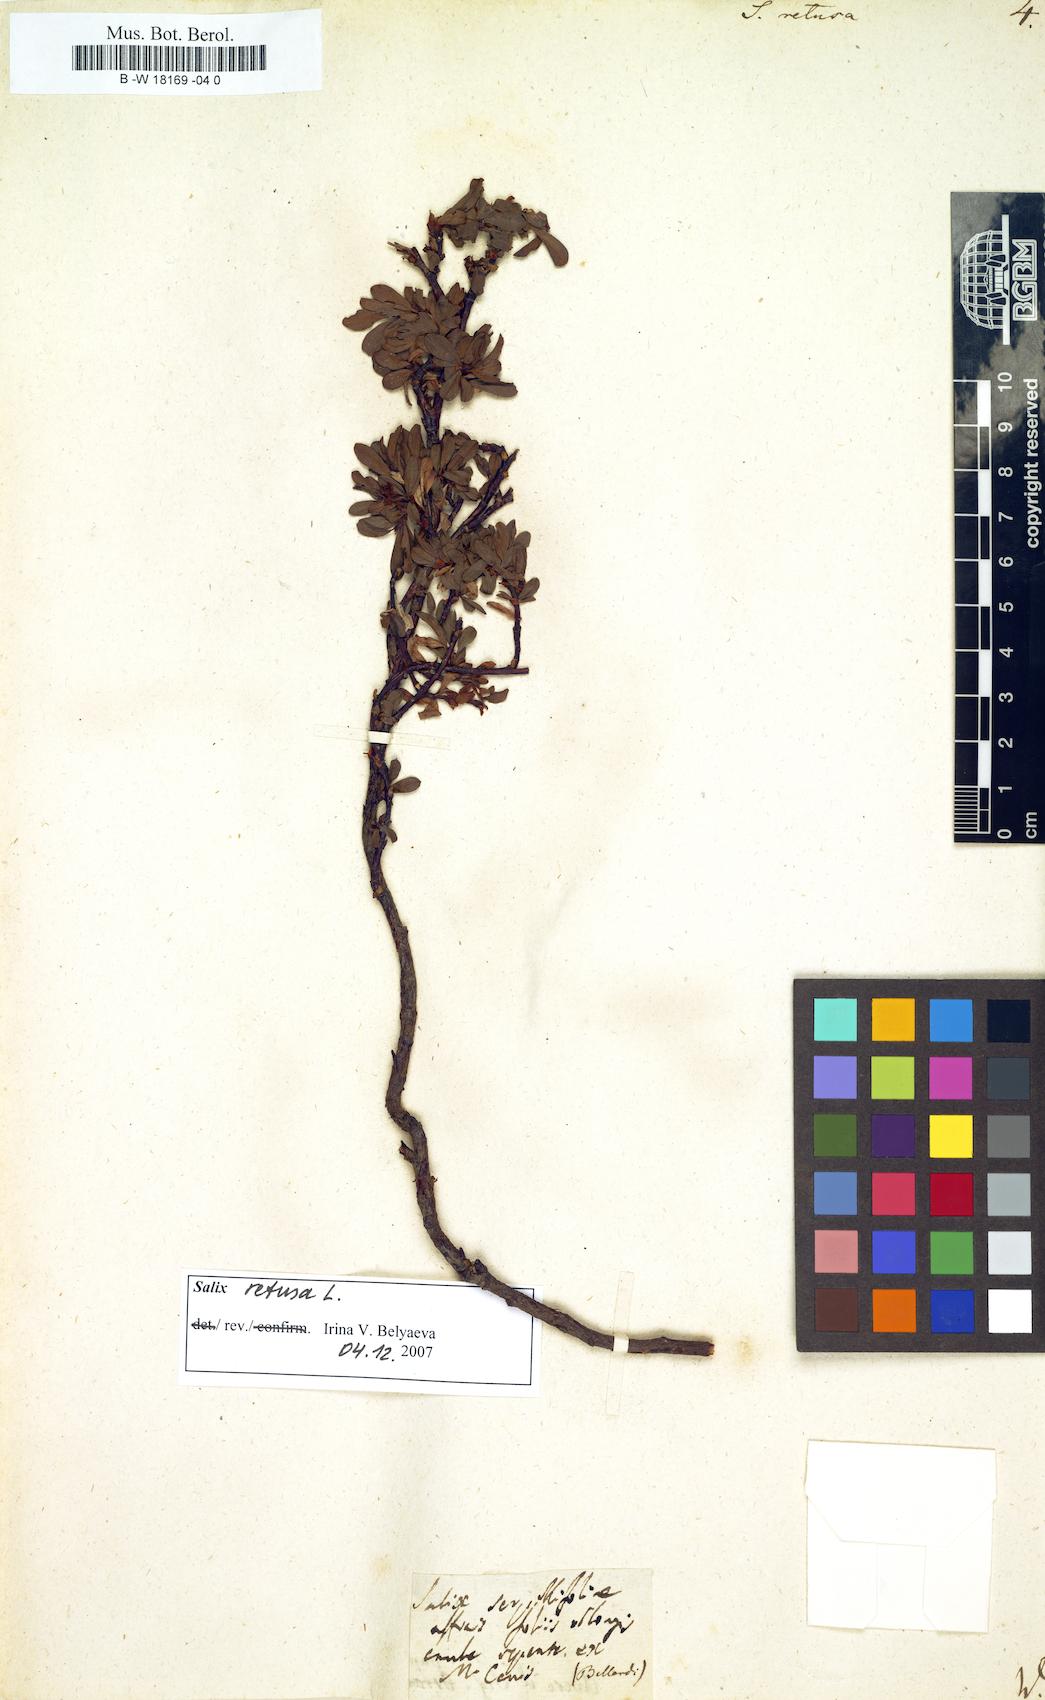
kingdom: Plantae
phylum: Tracheophyta
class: Magnoliopsida
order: Malpighiales
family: Salicaceae
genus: Salix
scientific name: Salix retusa
